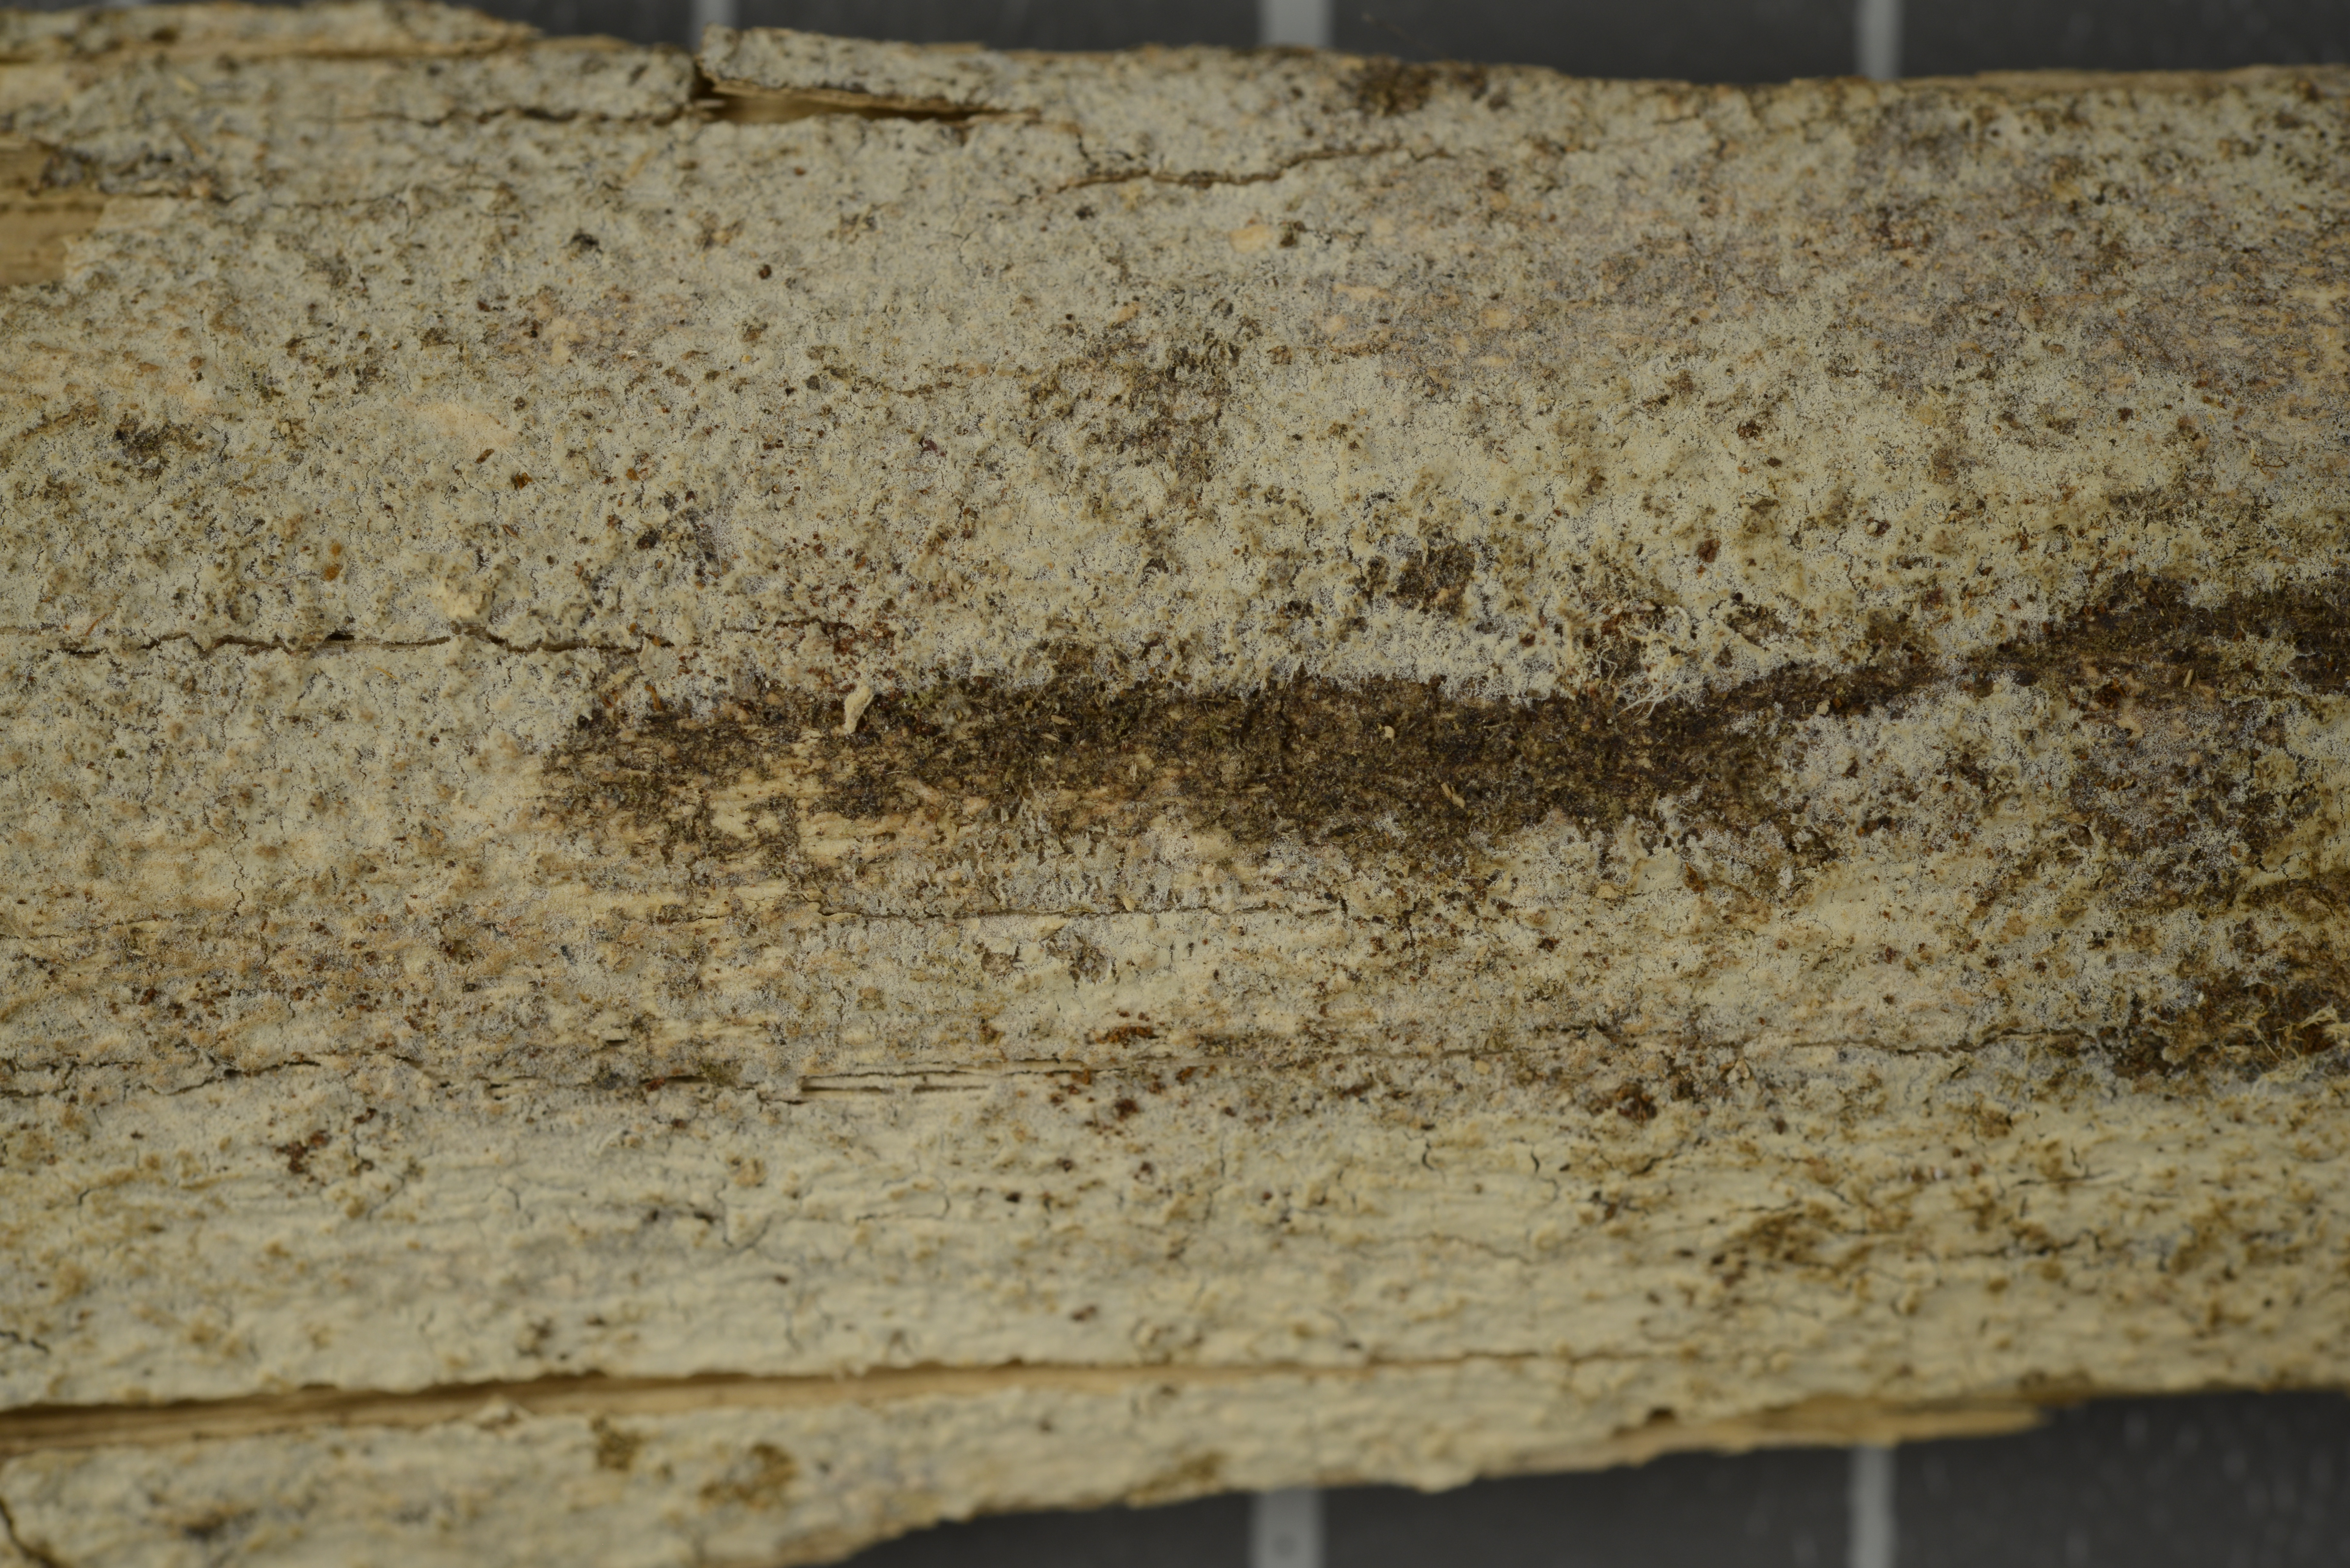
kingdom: Fungi
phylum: Basidiomycota
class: Agaricomycetes
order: Agaricales
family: Cyphellaceae
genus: Gloeocorticium
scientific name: Gloeocorticium cinerascens
